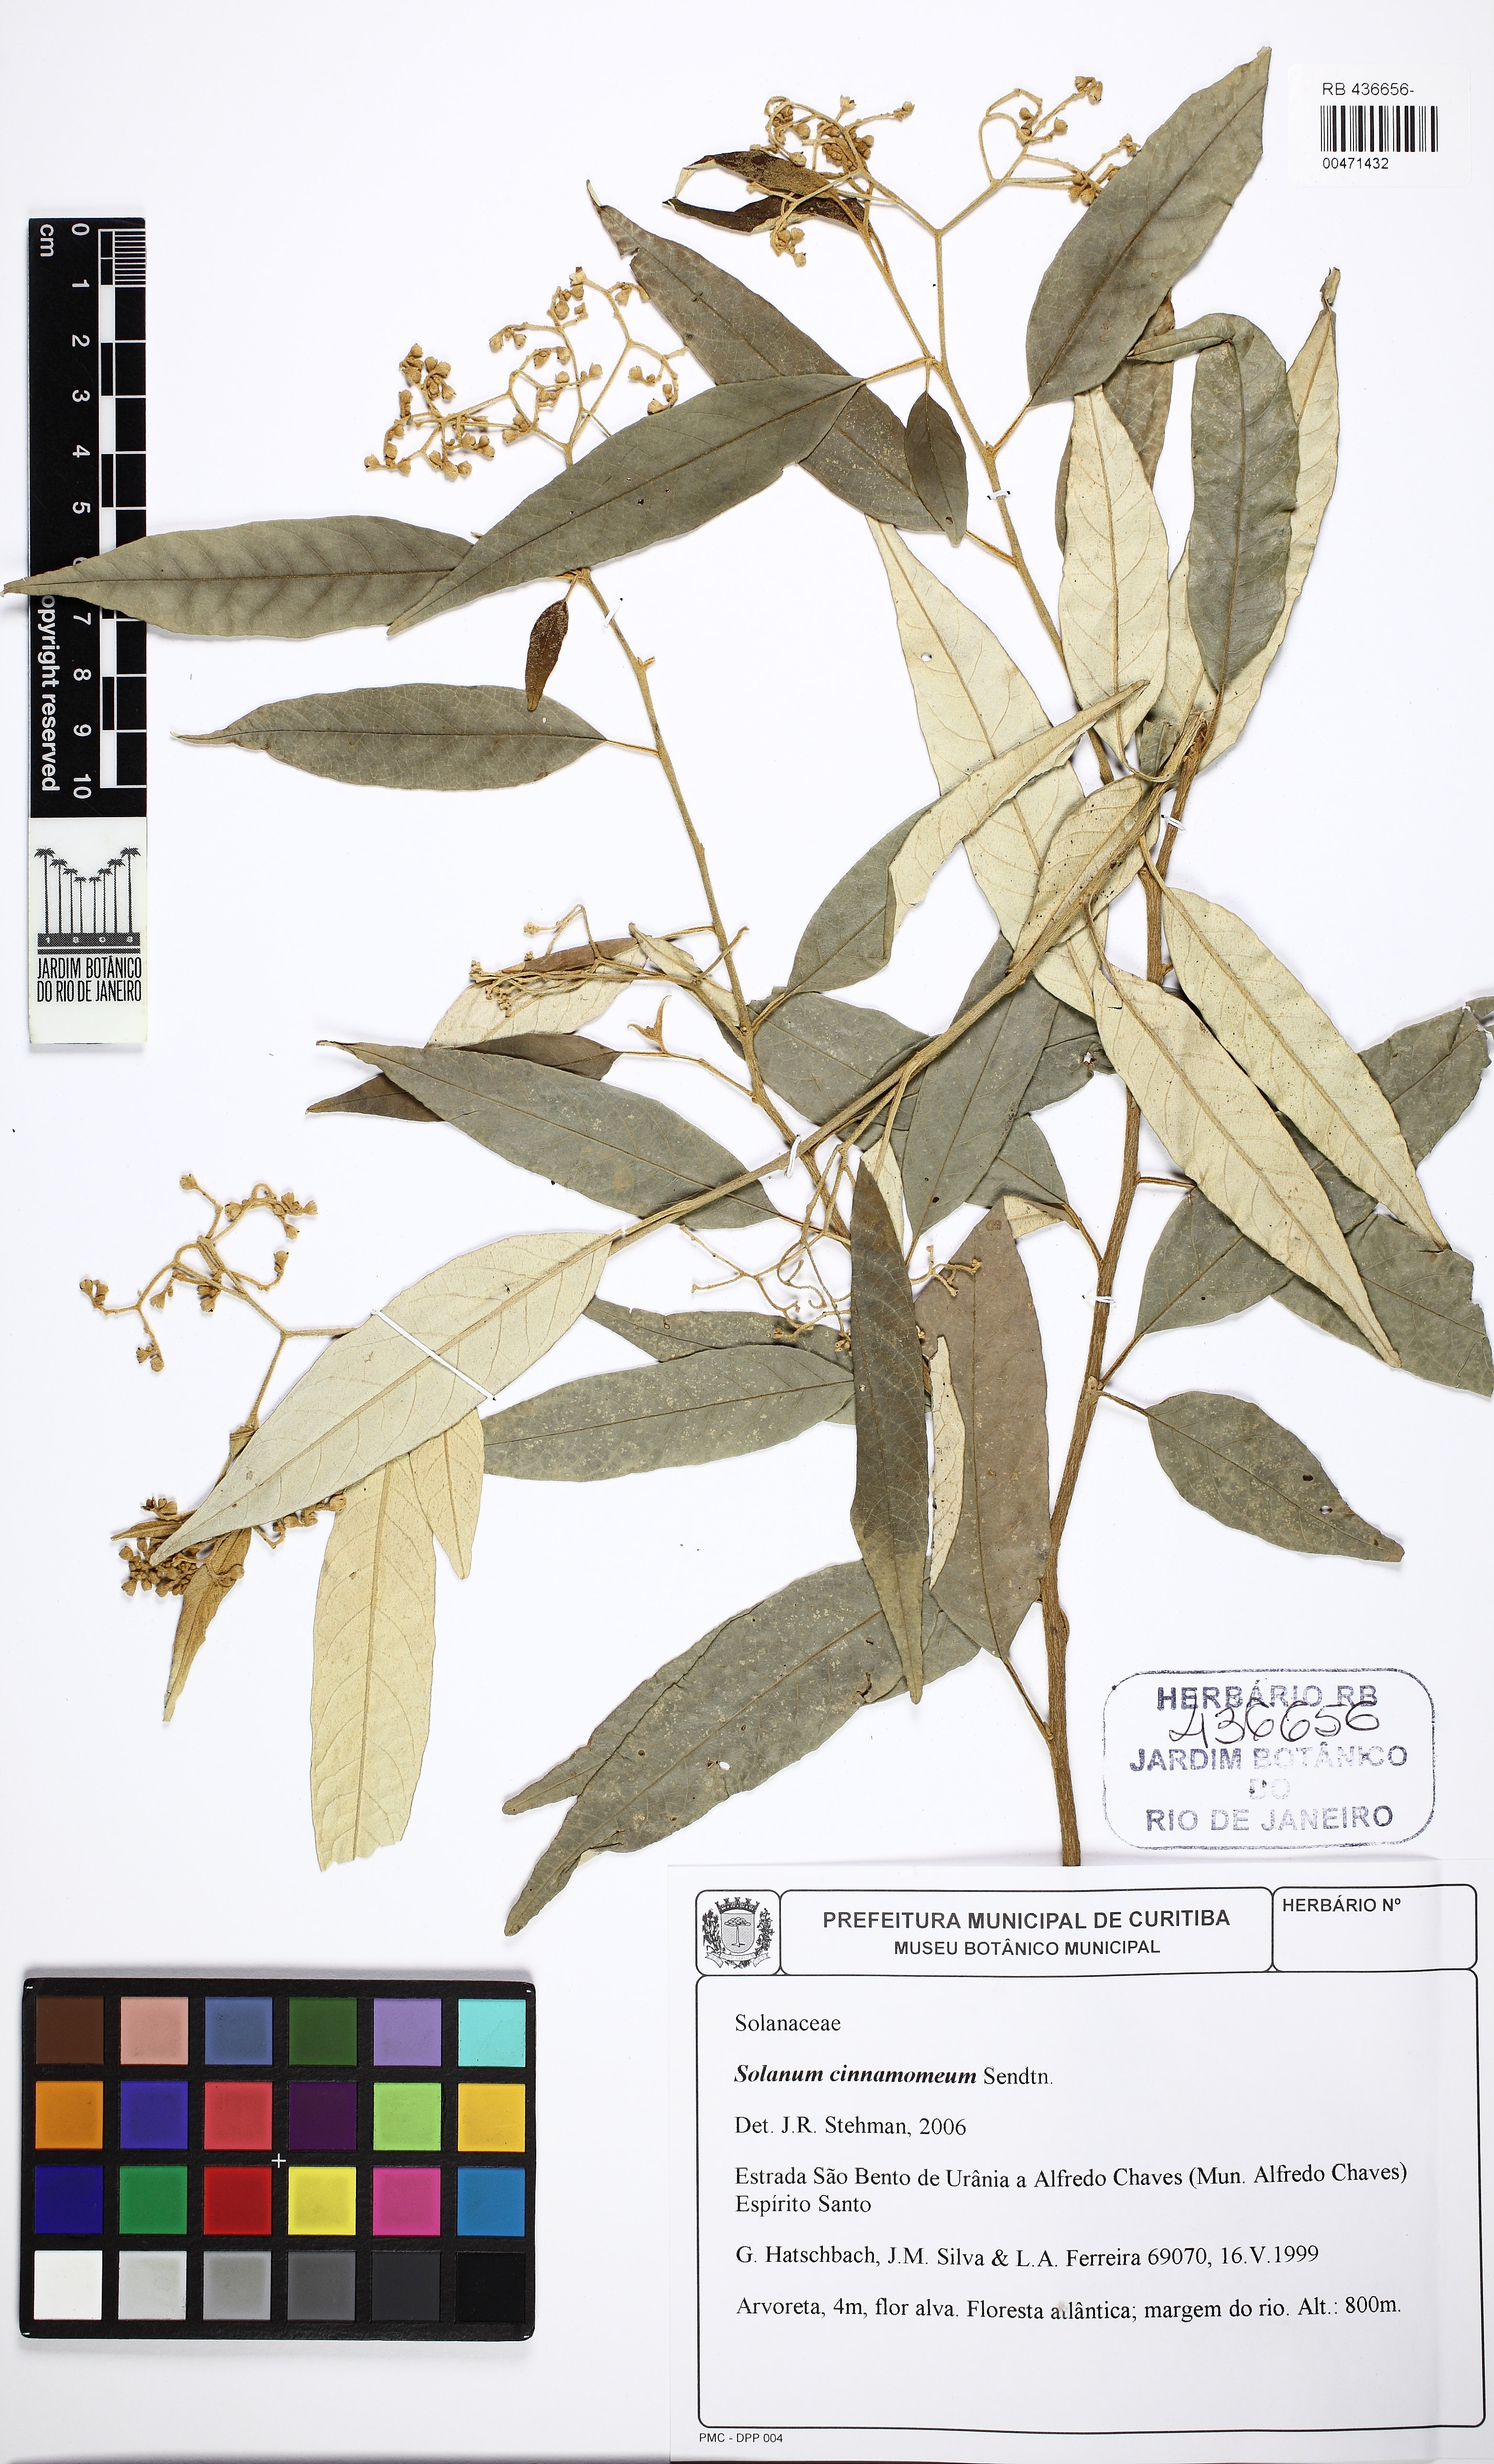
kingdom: Plantae
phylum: Tracheophyta
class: Magnoliopsida
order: Solanales
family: Solanaceae
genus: Solanum
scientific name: Solanum cinnamomeum
